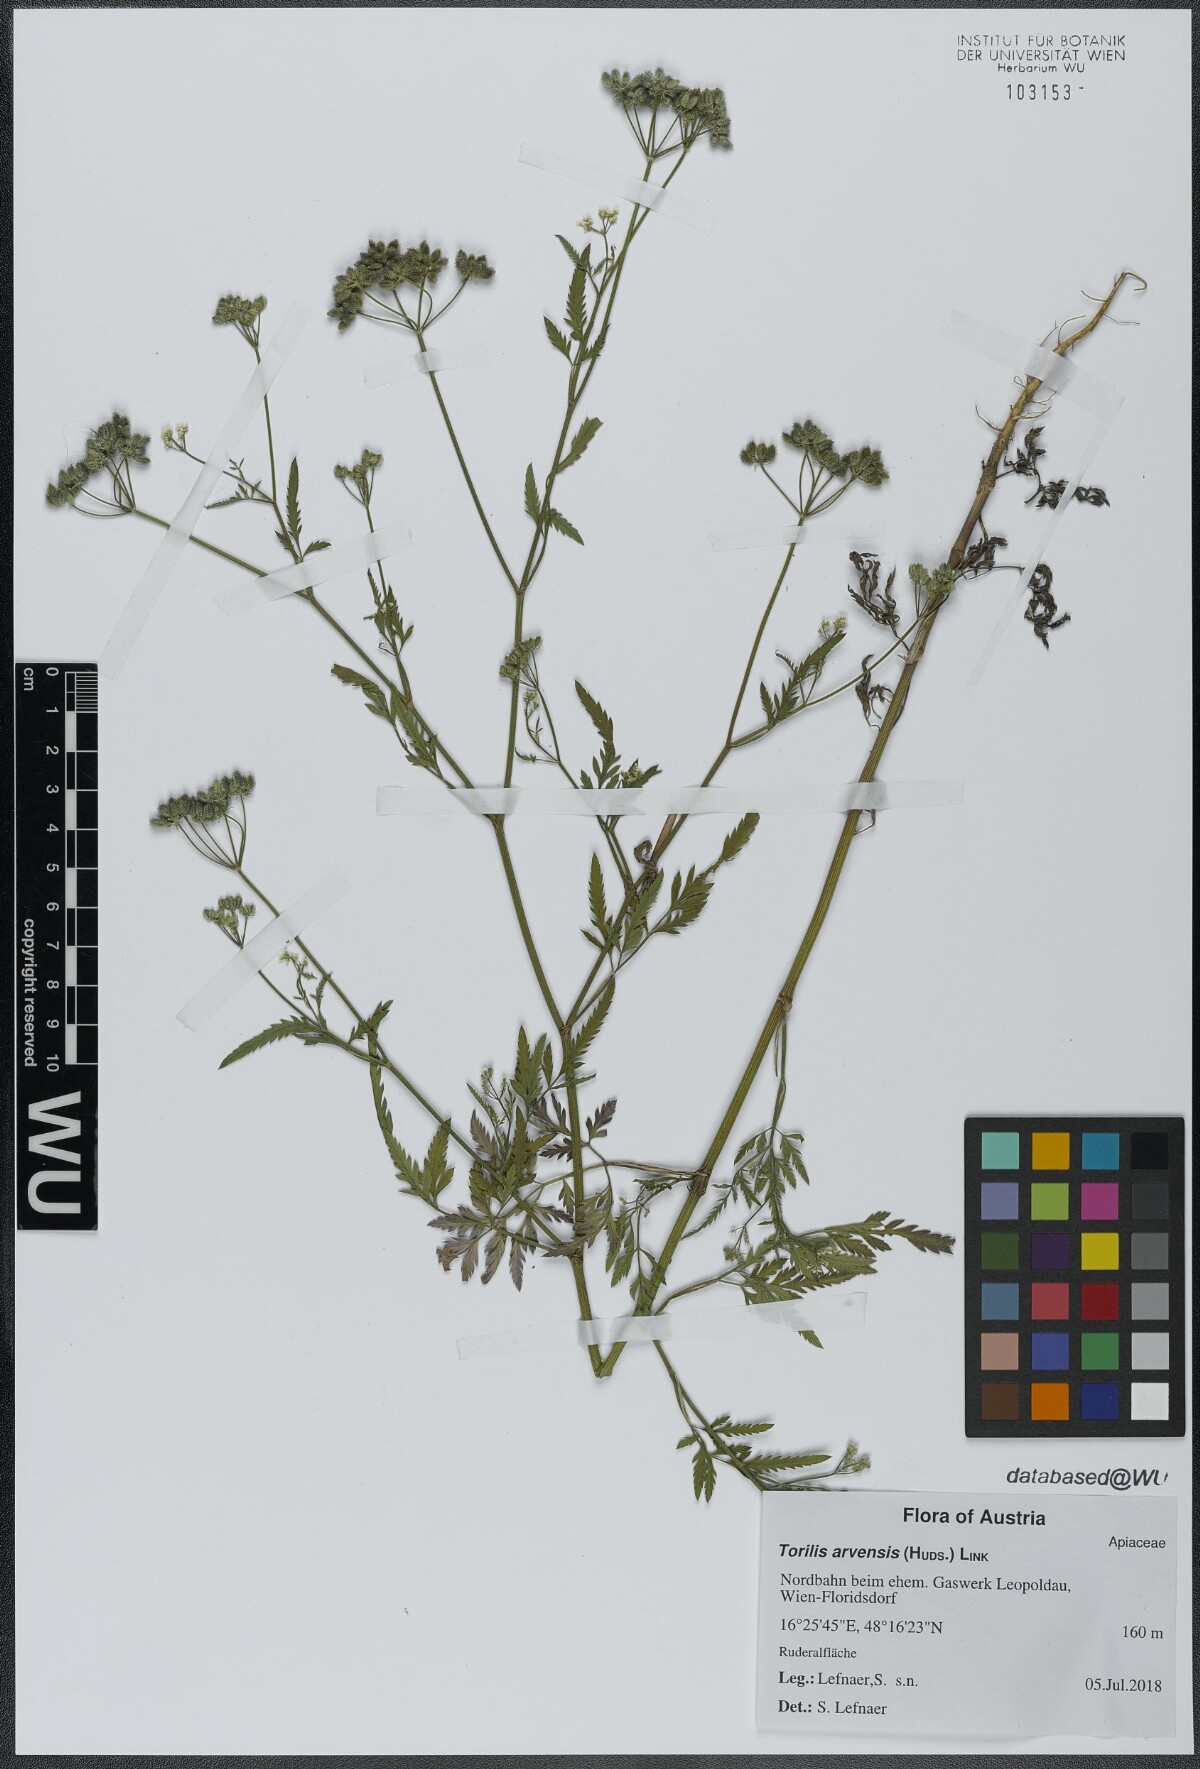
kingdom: Plantae
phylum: Tracheophyta
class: Magnoliopsida
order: Apiales
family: Apiaceae
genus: Torilis
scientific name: Torilis arvensis
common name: Spreading hedge-parsley
